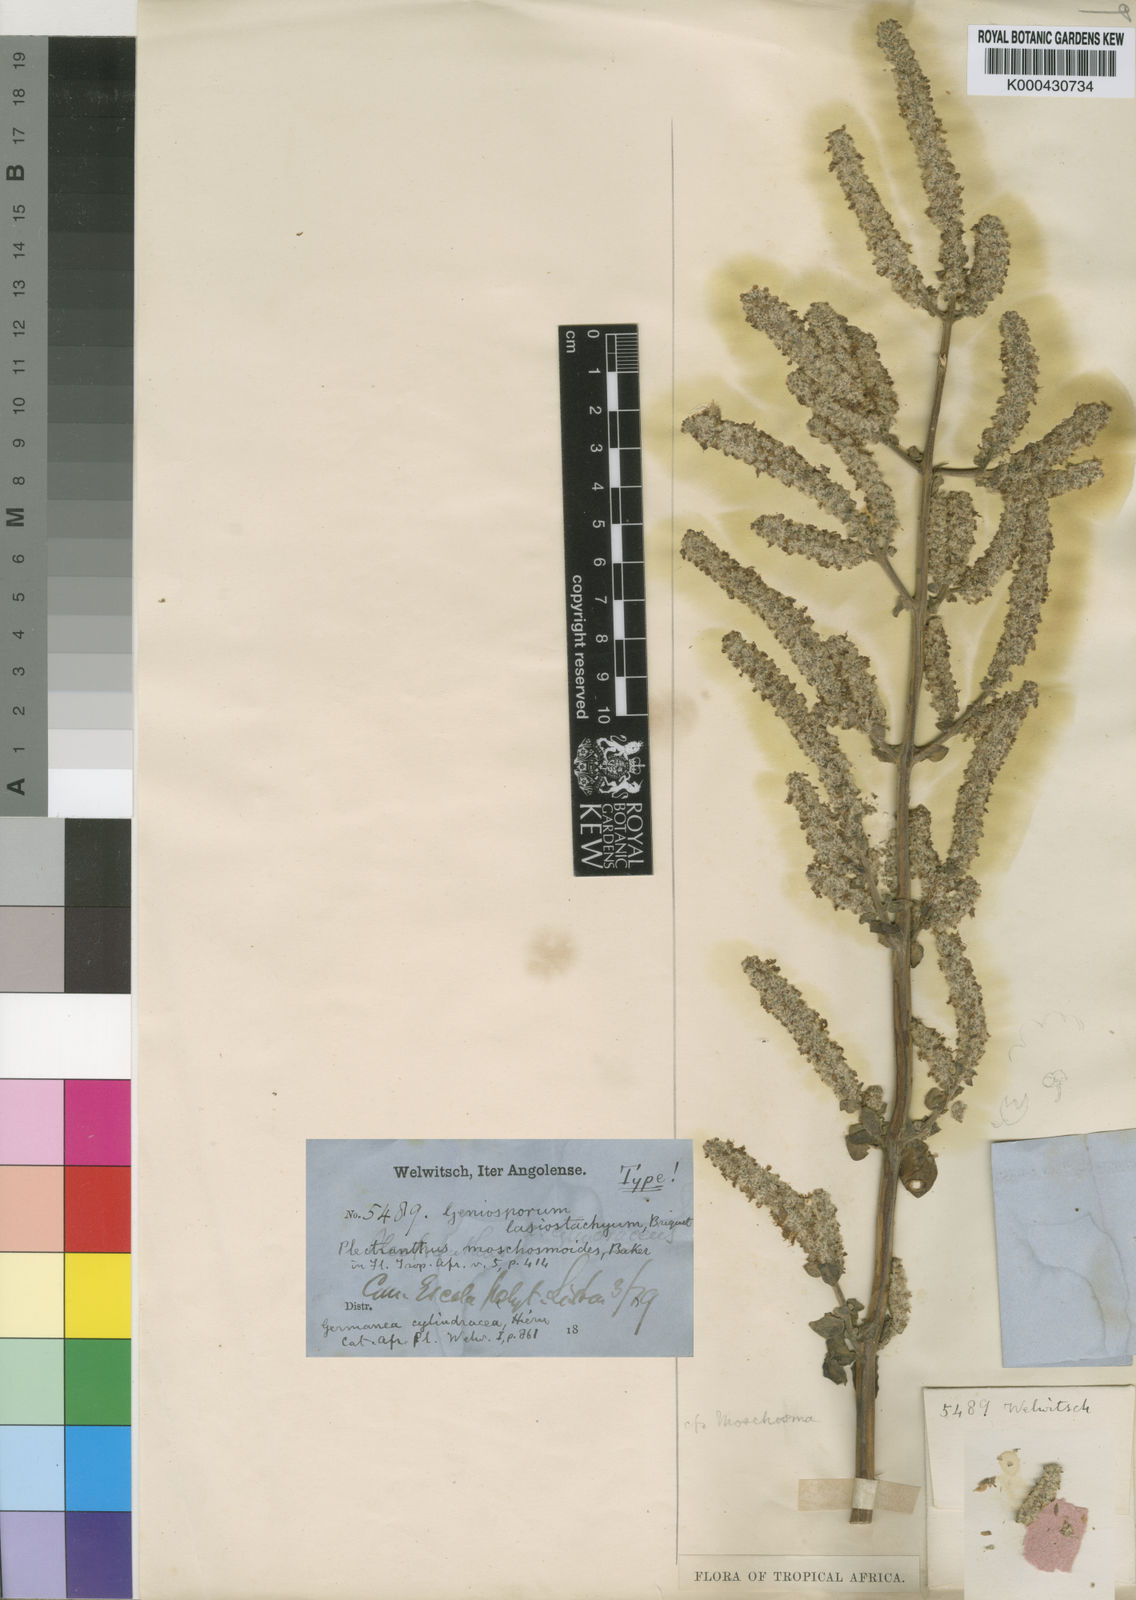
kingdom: Plantae
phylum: Tracheophyta
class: Magnoliopsida
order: Lamiales
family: Lamiaceae
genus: Coleus
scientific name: Coleus cylindraceus
